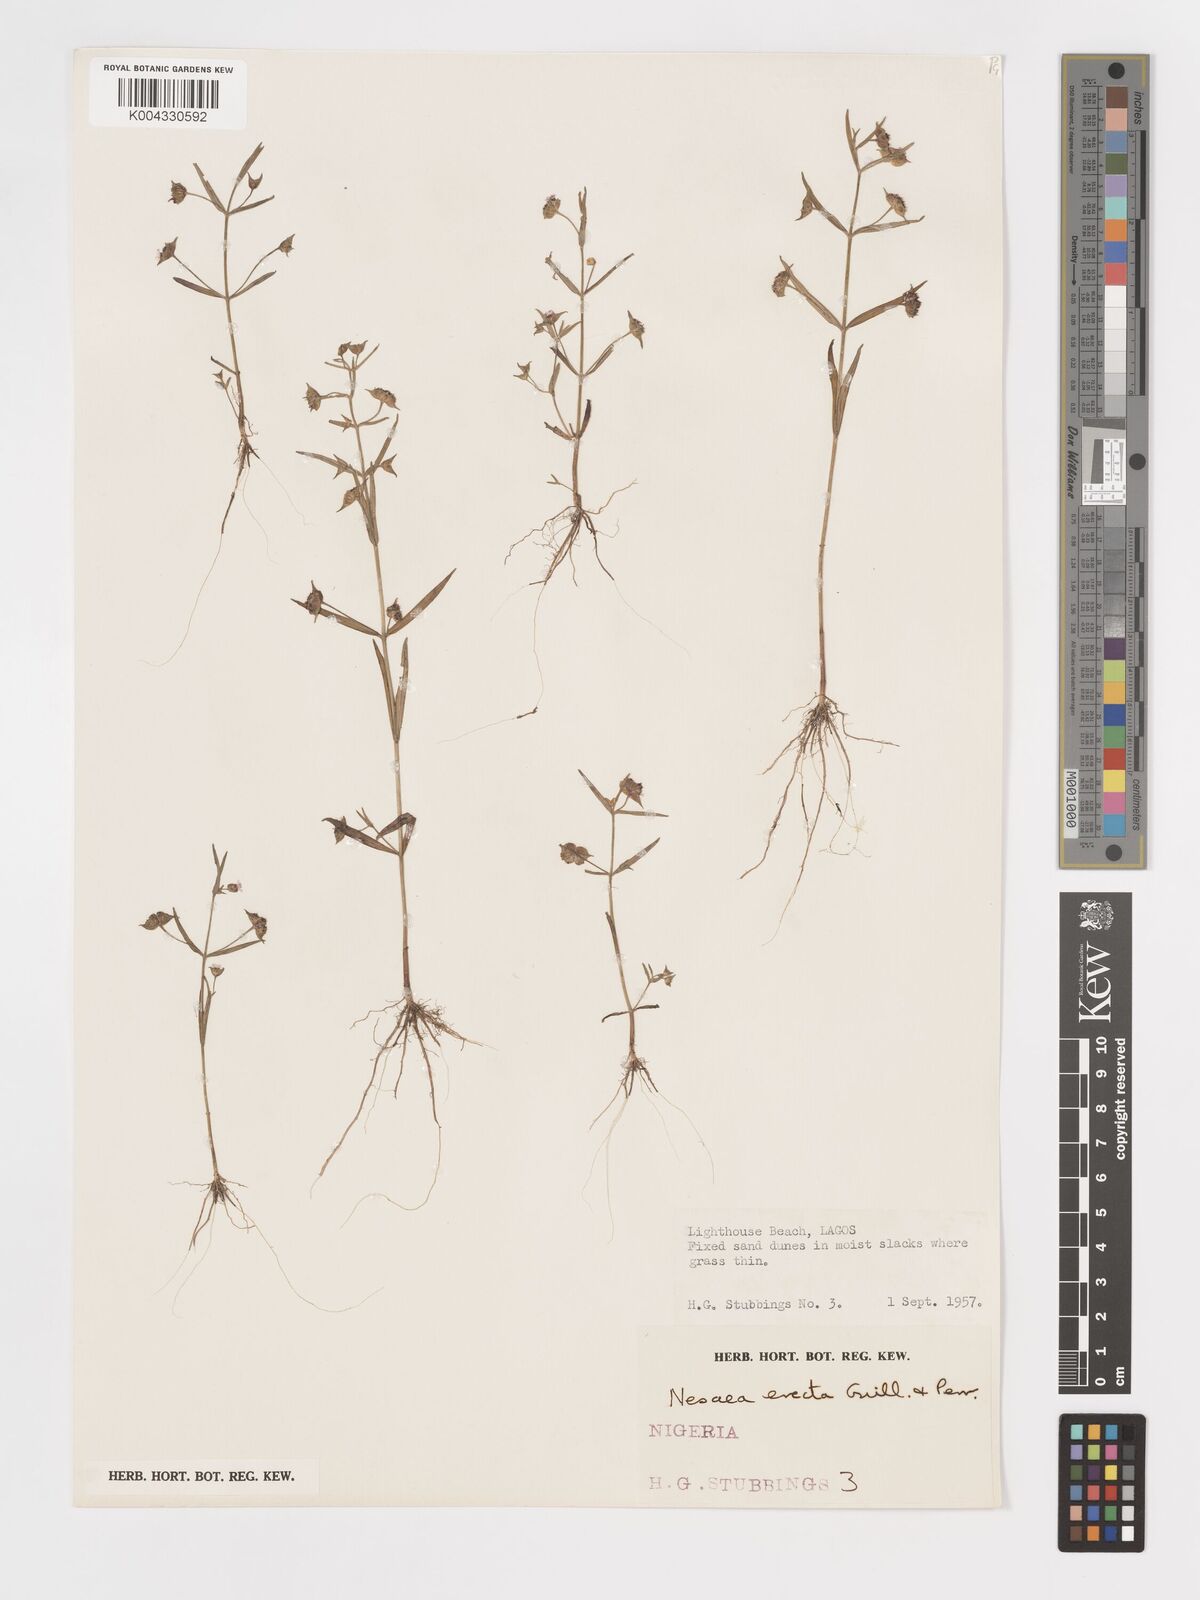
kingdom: Plantae
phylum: Tracheophyta
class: Magnoliopsida
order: Myrtales
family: Lythraceae
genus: Ammannia
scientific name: Ammannia erecta
